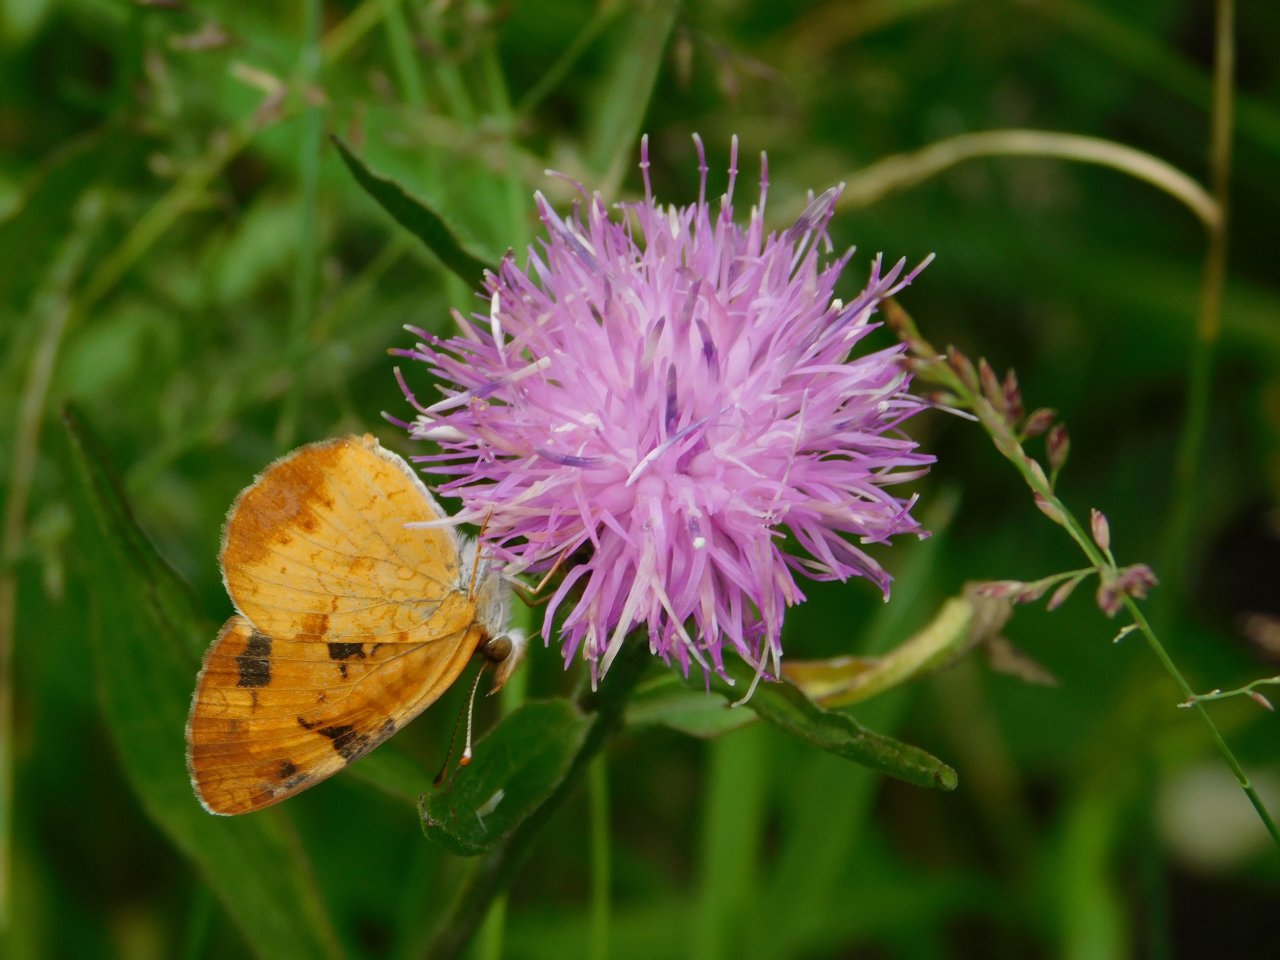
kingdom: Animalia
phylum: Arthropoda
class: Insecta
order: Lepidoptera
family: Nymphalidae
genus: Phyciodes
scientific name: Phyciodes tharos
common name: Northern Crescent
